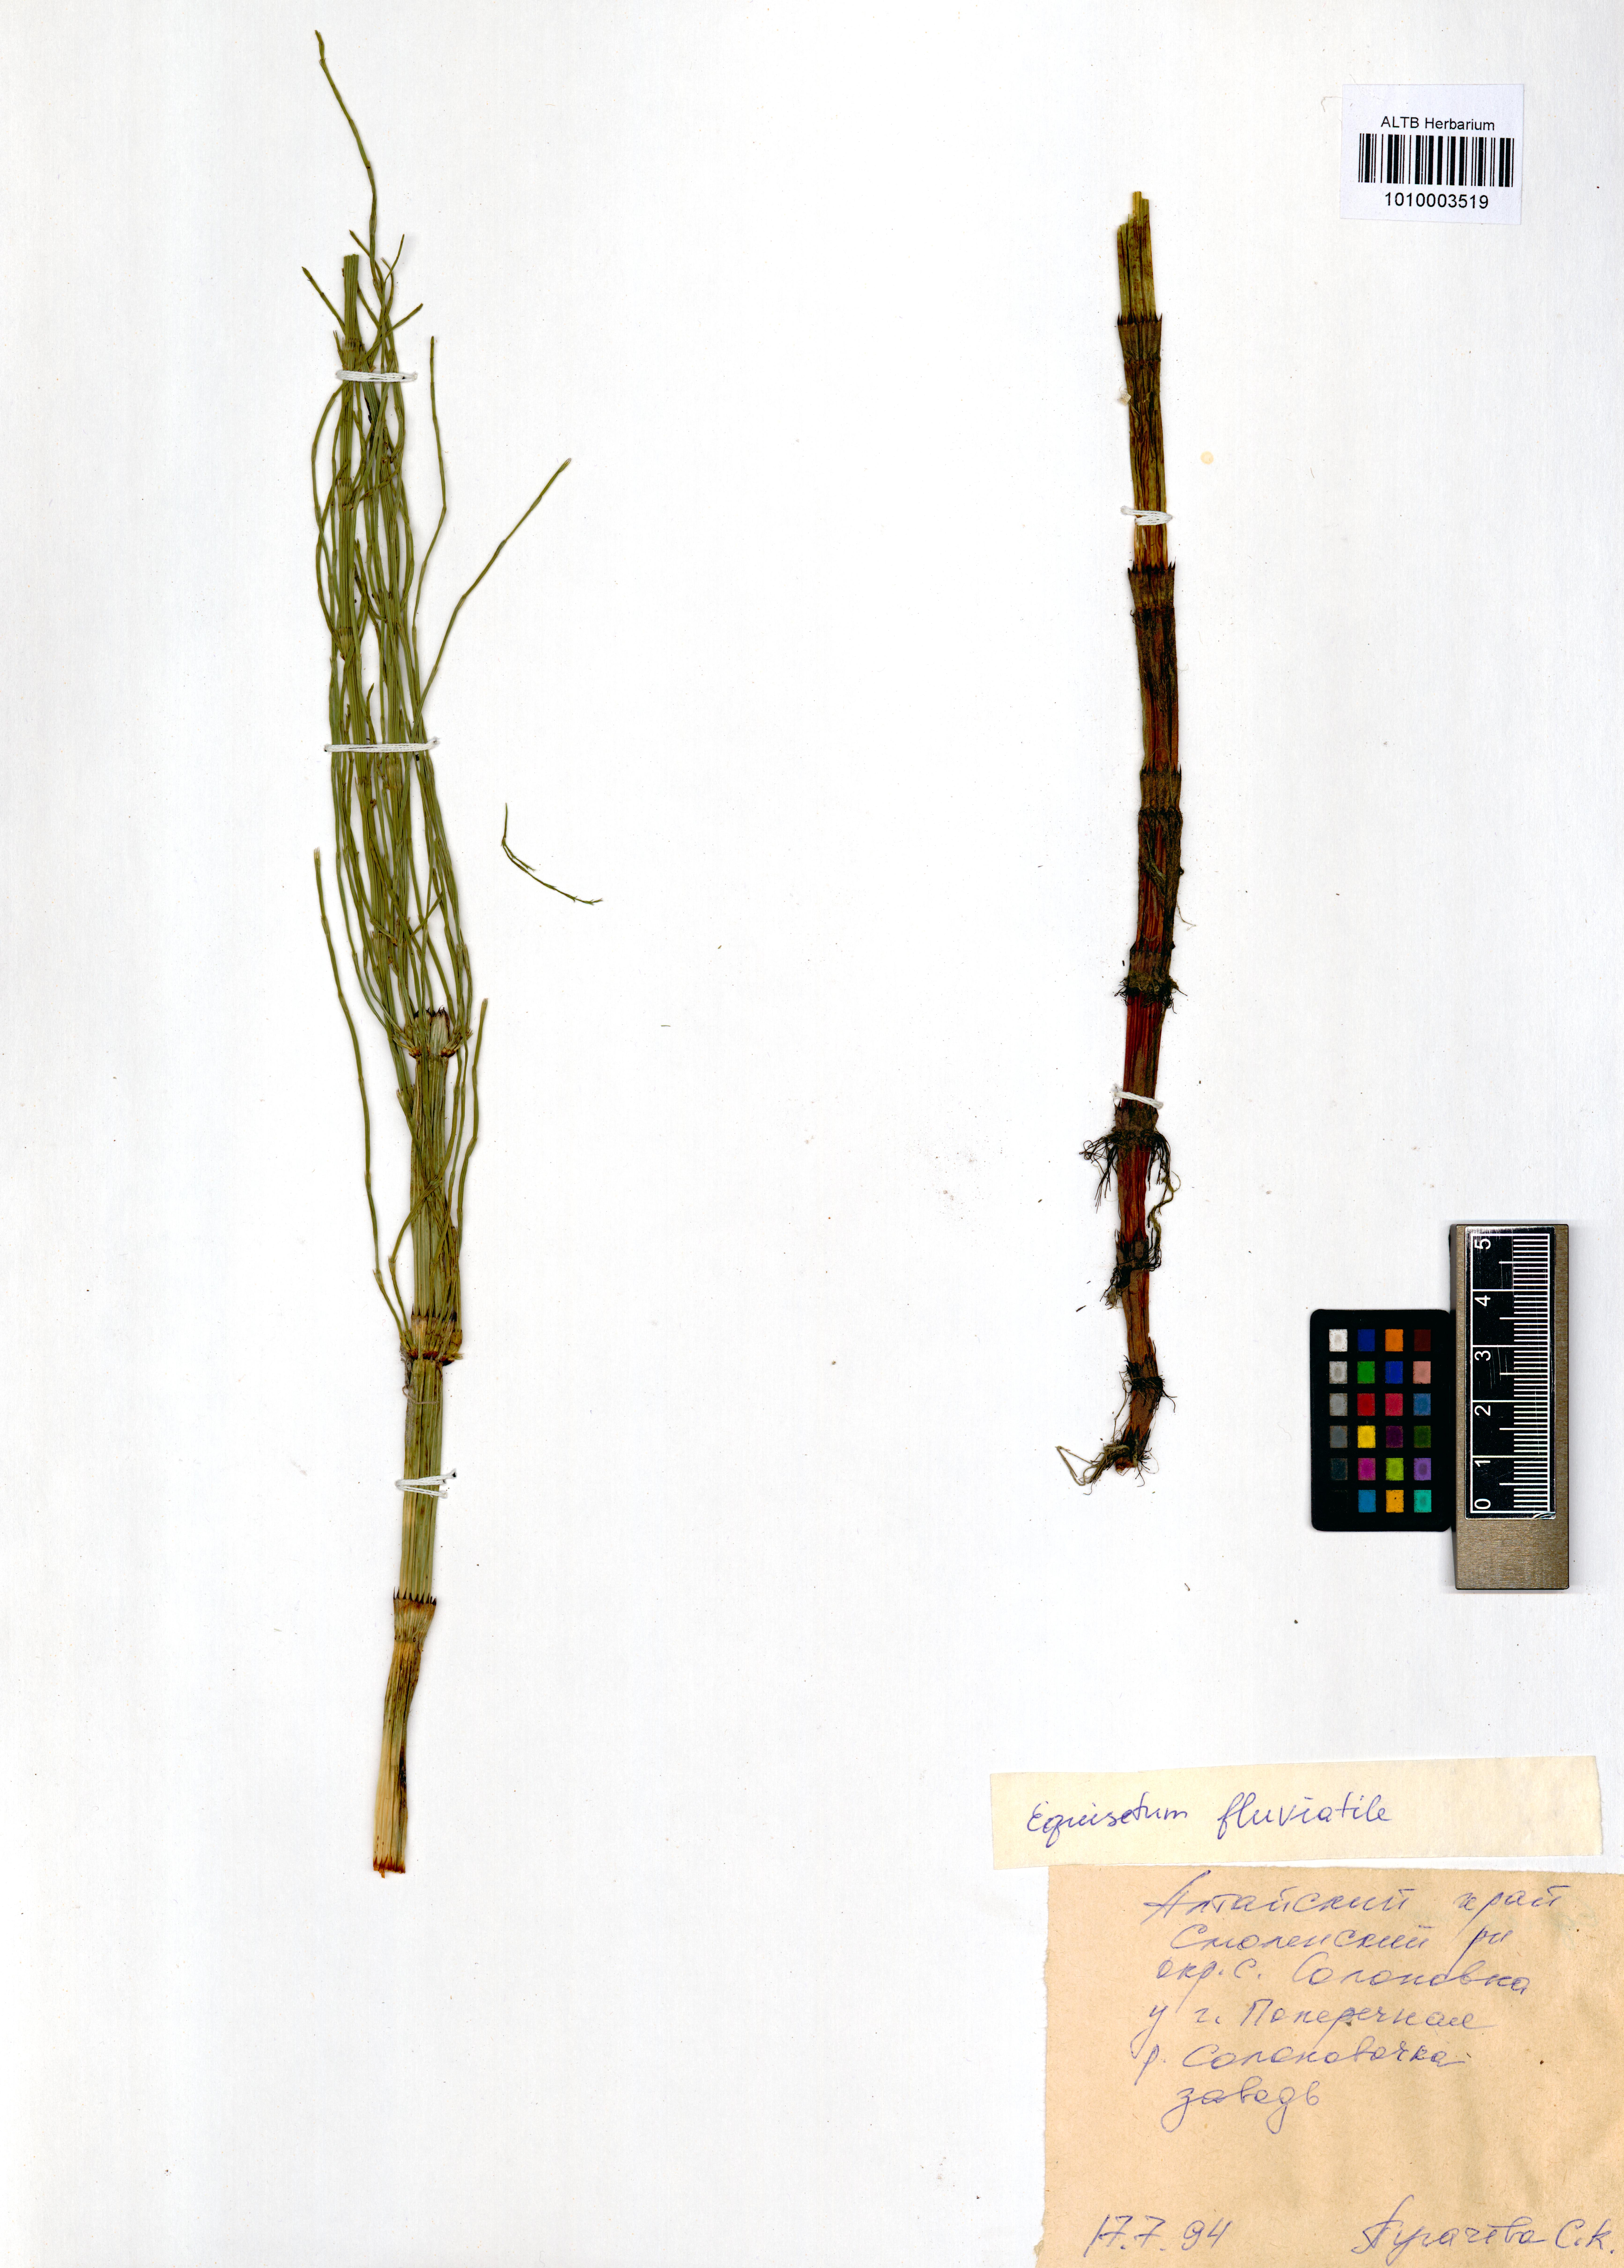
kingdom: Plantae
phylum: Tracheophyta
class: Polypodiopsida
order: Equisetales
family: Equisetaceae
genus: Equisetum
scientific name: Equisetum fluviatile
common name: Water horsetail
